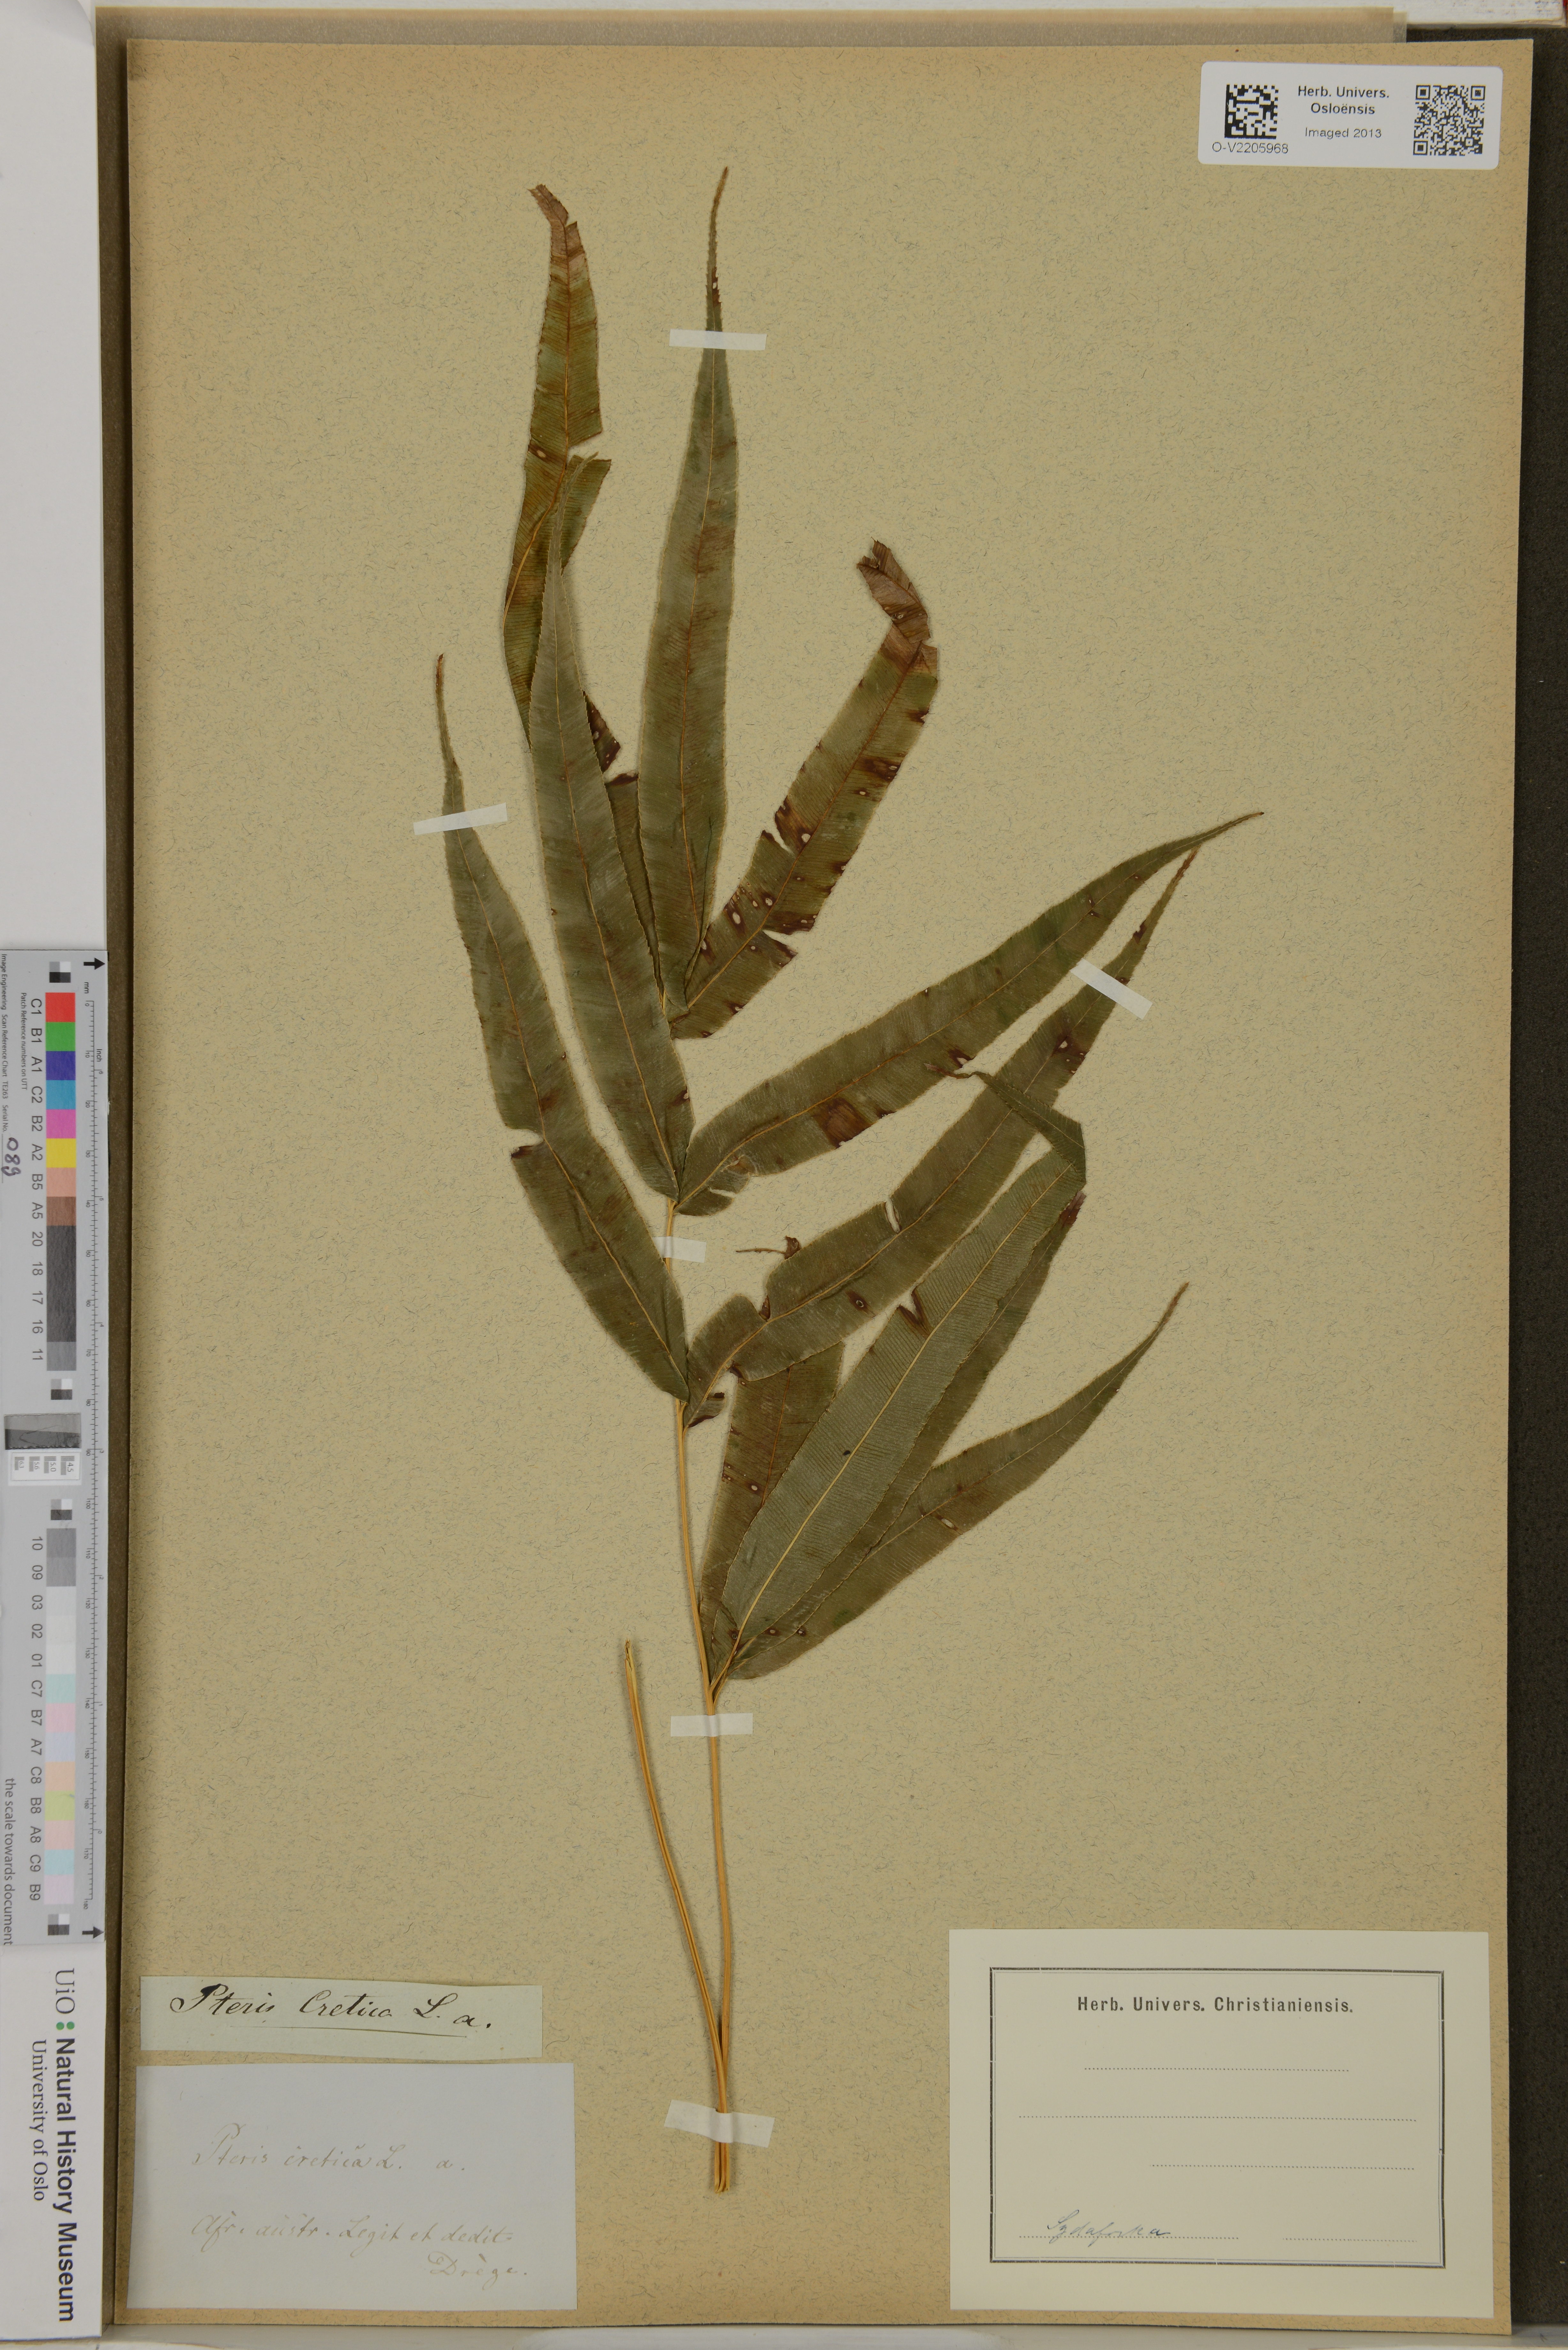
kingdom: Plantae
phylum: Tracheophyta
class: Polypodiopsida
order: Polypodiales
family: Pteridaceae
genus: Pteris
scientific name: Pteris cretica
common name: Ribbon fern
